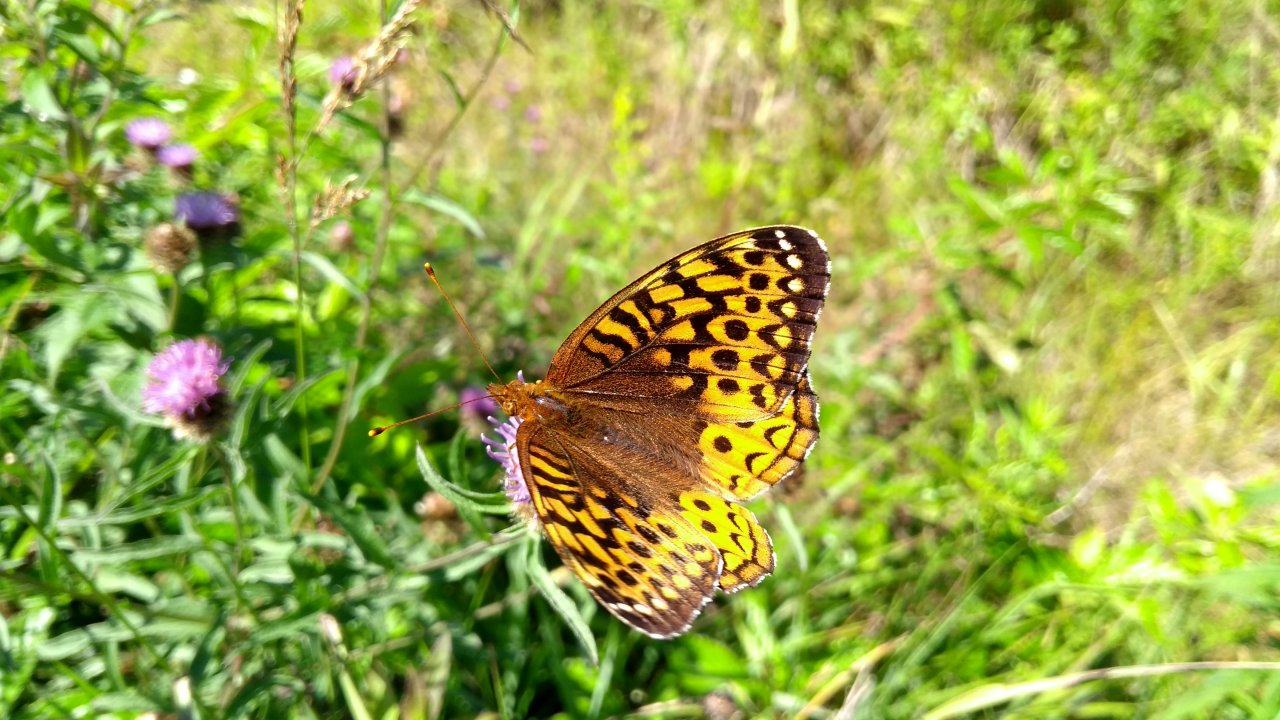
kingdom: Animalia
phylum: Arthropoda
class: Insecta
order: Lepidoptera
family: Nymphalidae
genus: Speyeria
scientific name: Speyeria cybele
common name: Great Spangled Fritillary
